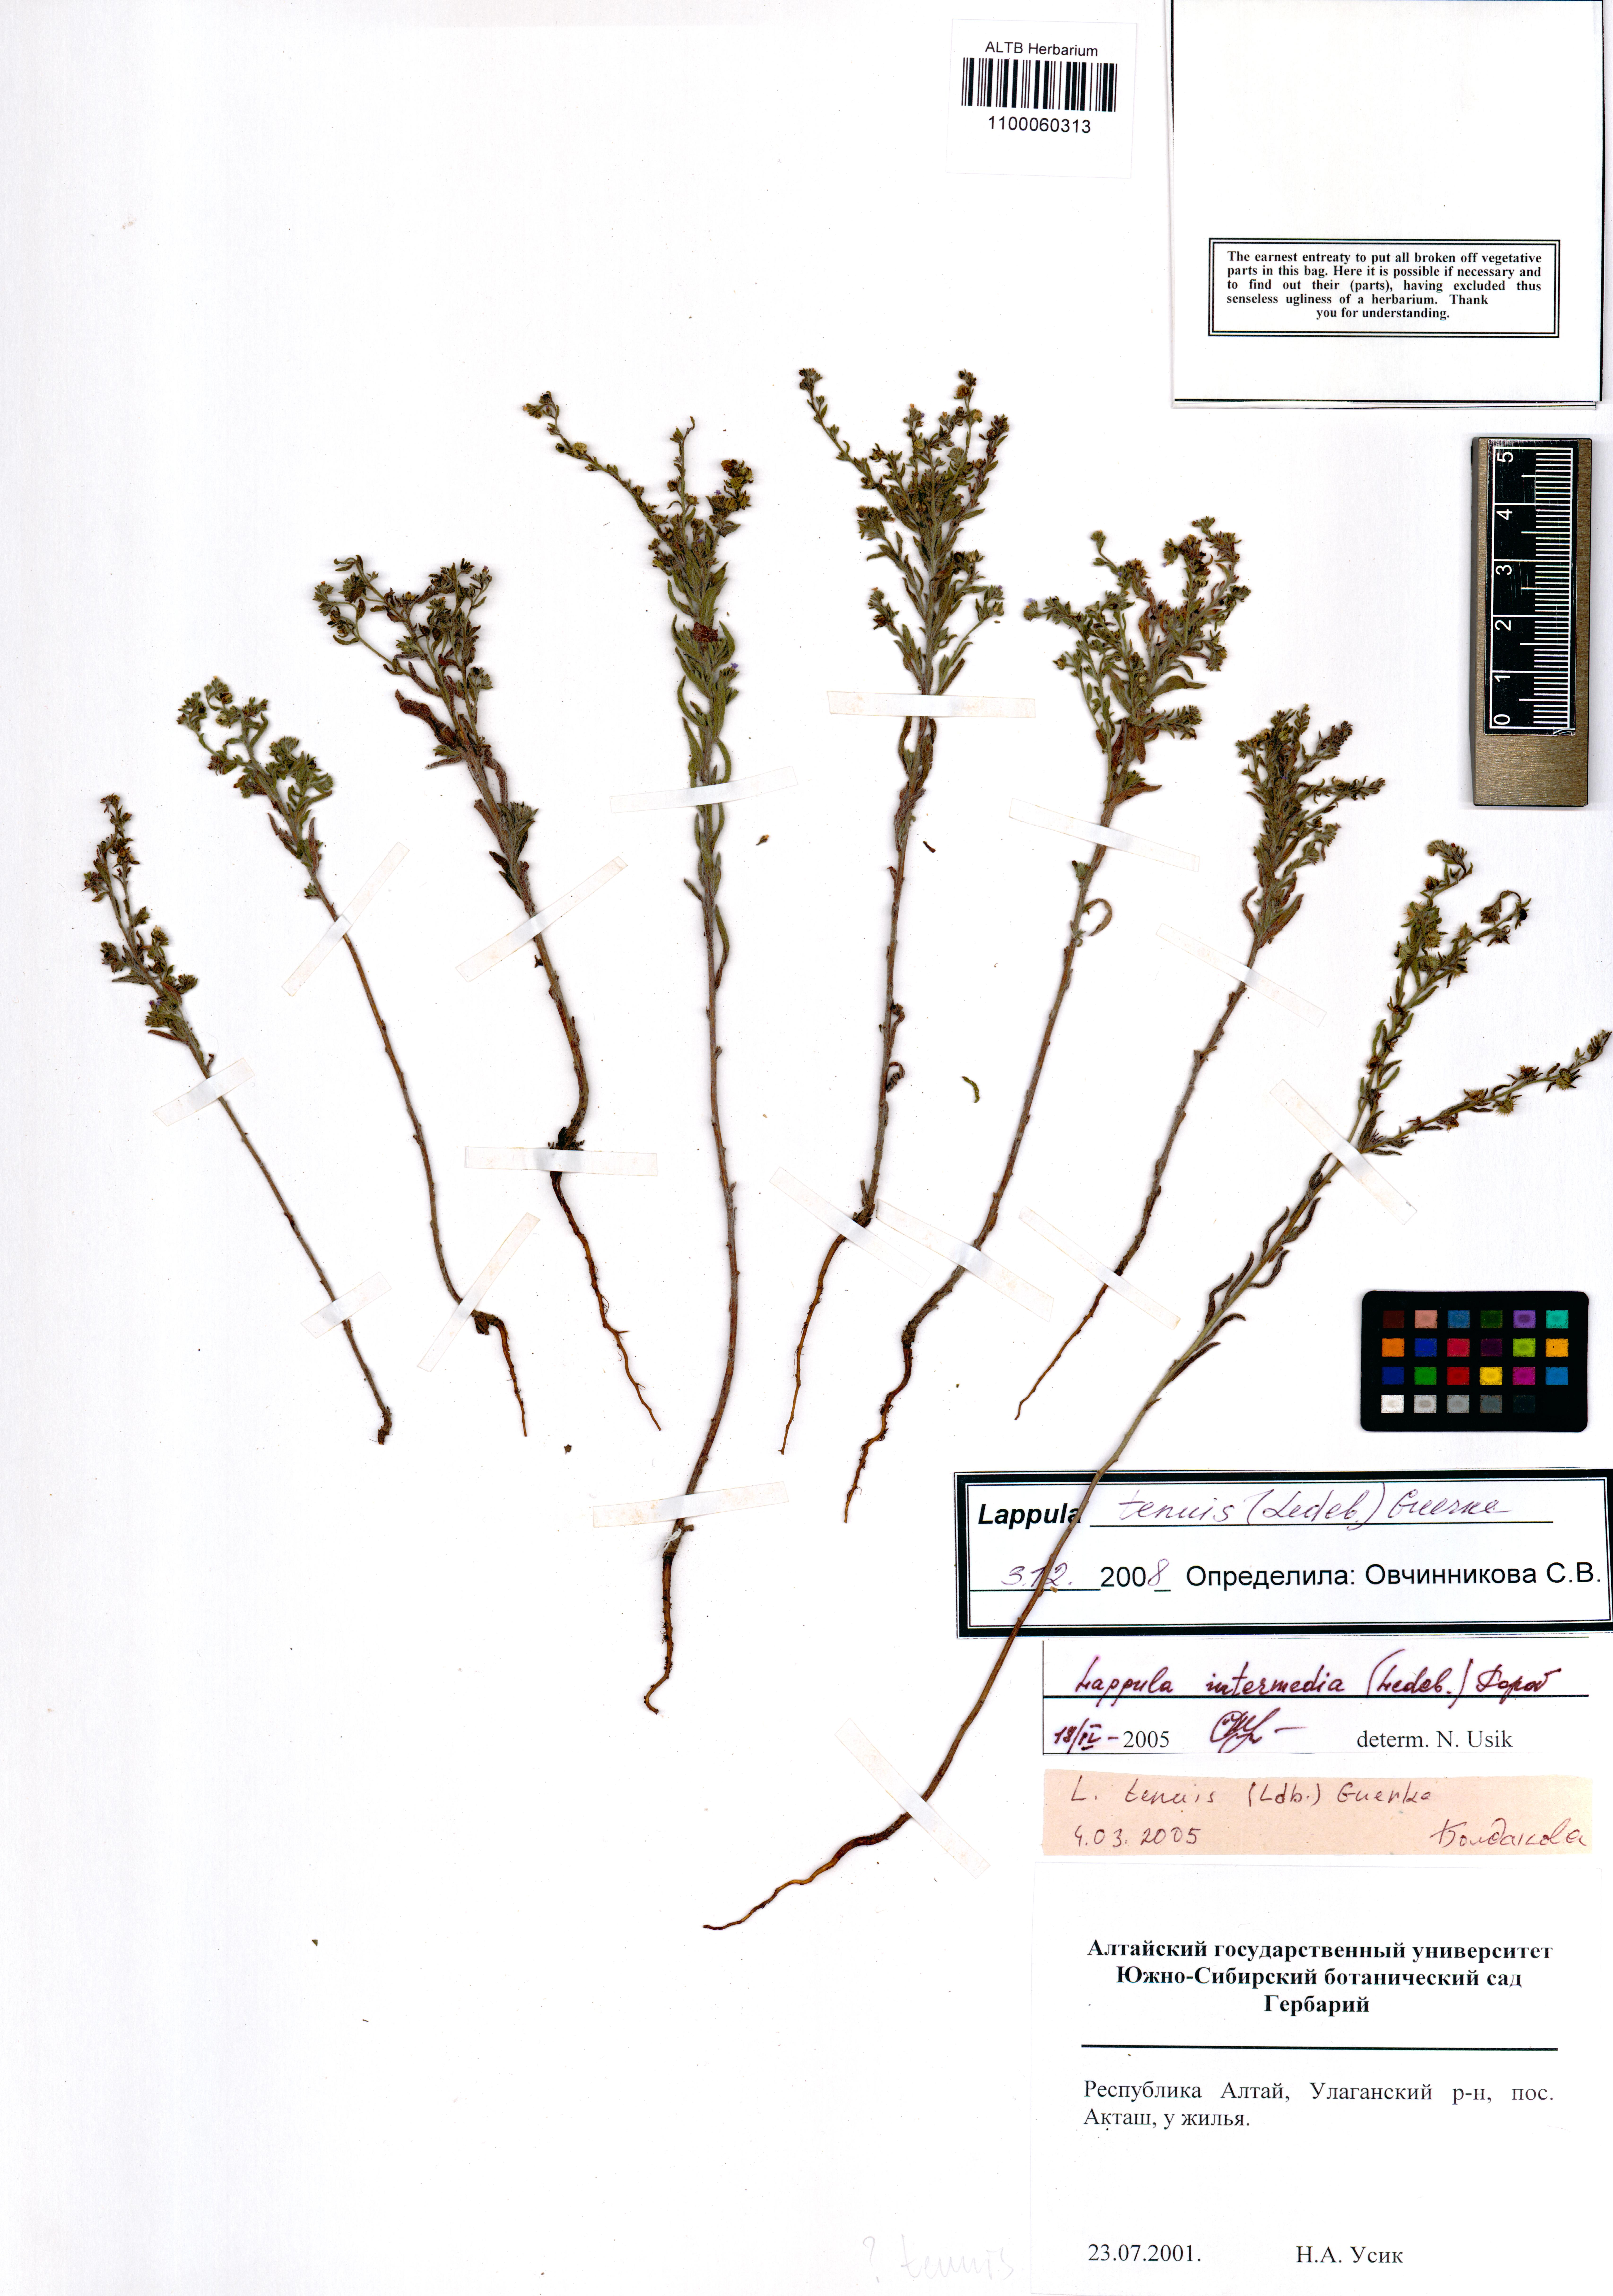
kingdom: Plantae
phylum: Tracheophyta
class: Magnoliopsida
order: Boraginales
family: Boraginaceae
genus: Lappula
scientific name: Lappula tenuis
